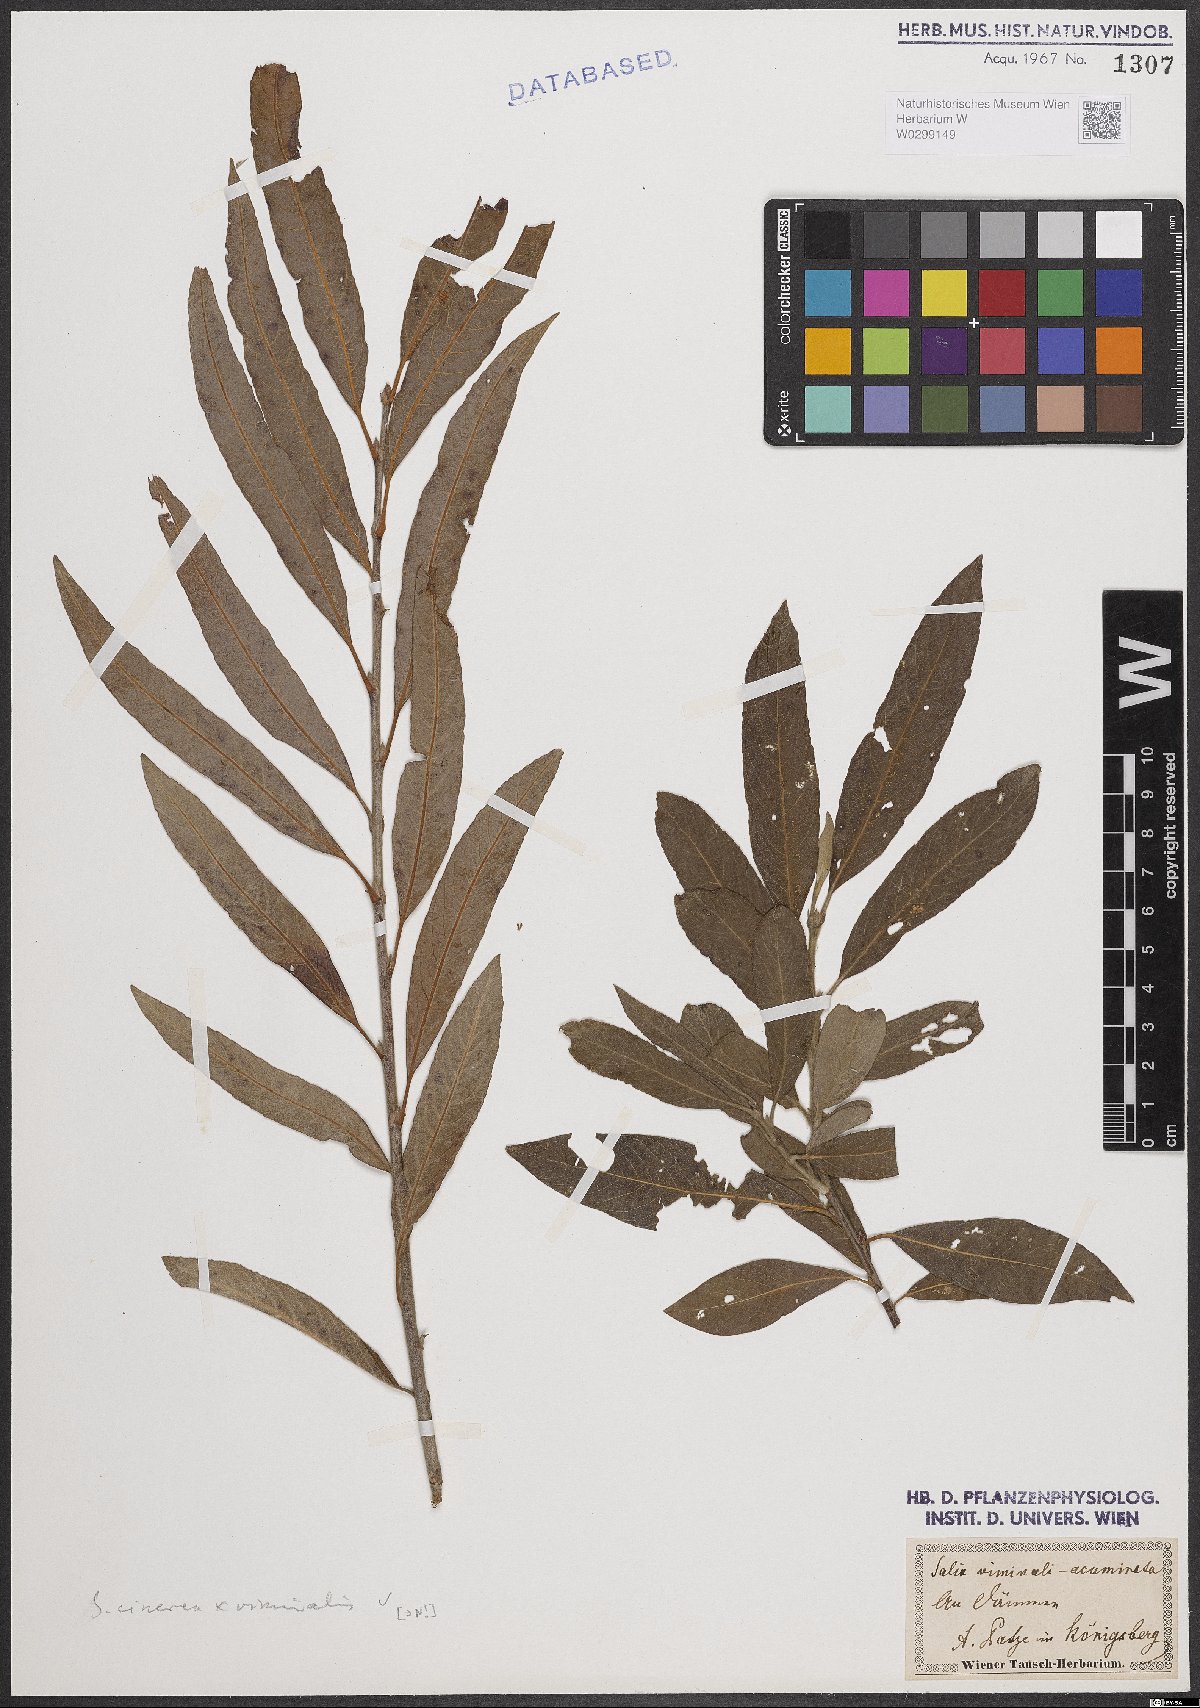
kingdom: Plantae
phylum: Tracheophyta
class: Magnoliopsida
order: Malpighiales
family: Salicaceae
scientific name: Salicaceae
